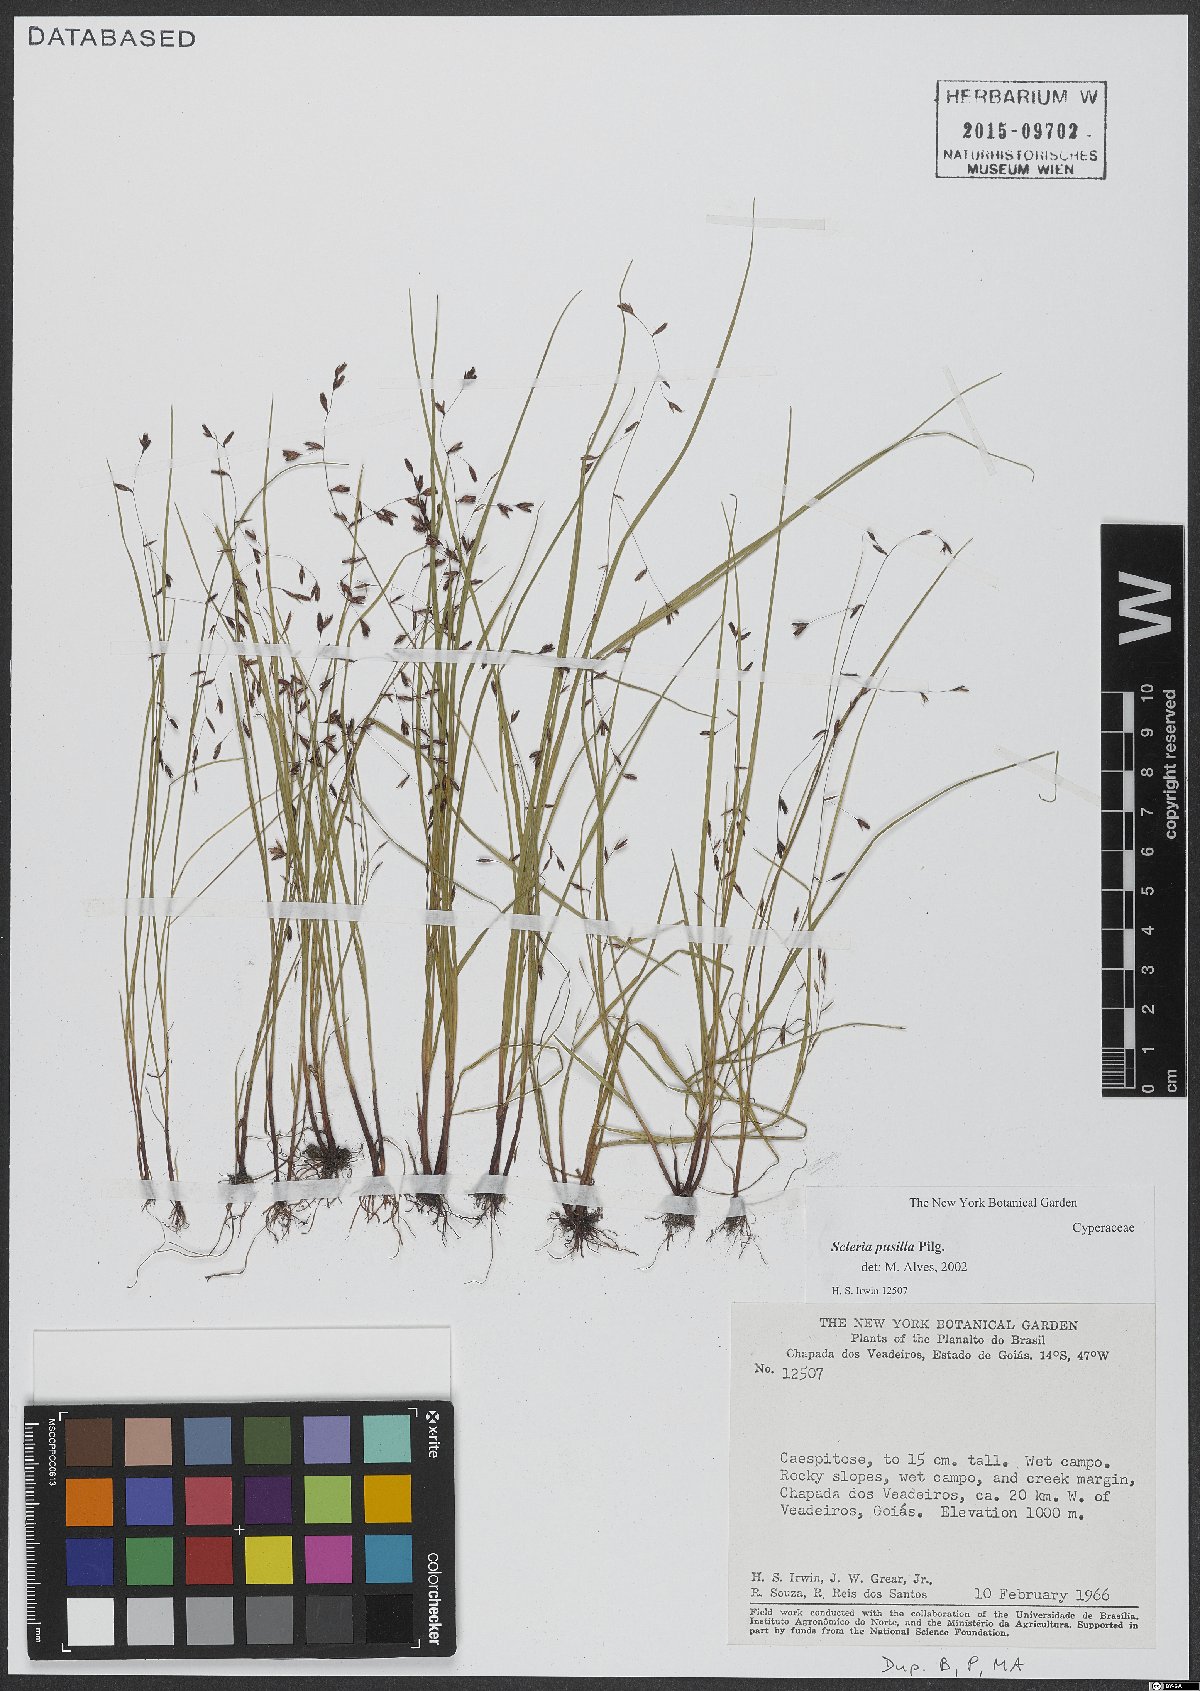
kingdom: Plantae
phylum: Tracheophyta
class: Liliopsida
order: Poales
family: Cyperaceae
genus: Scleria
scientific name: Scleria pusilla
